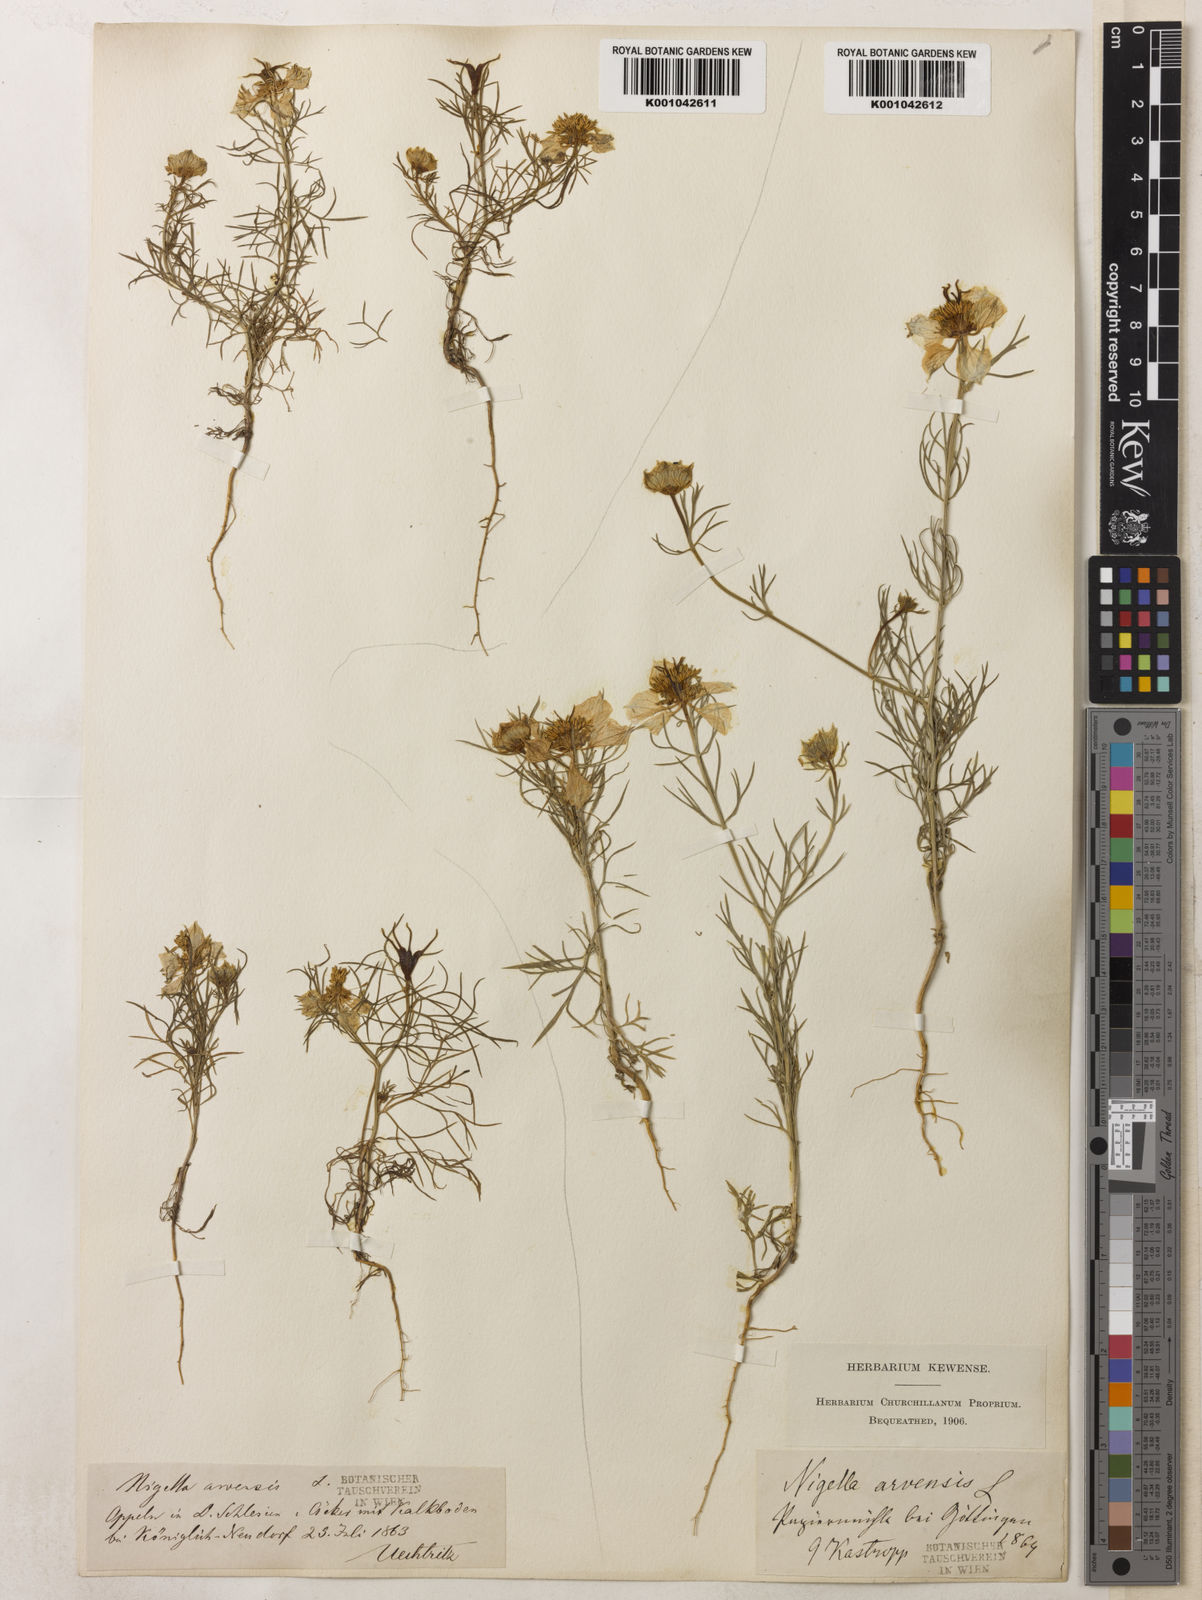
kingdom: Plantae
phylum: Tracheophyta
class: Magnoliopsida
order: Ranunculales
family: Ranunculaceae
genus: Nigella
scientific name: Nigella arvensis
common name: Wild fennel-flower
